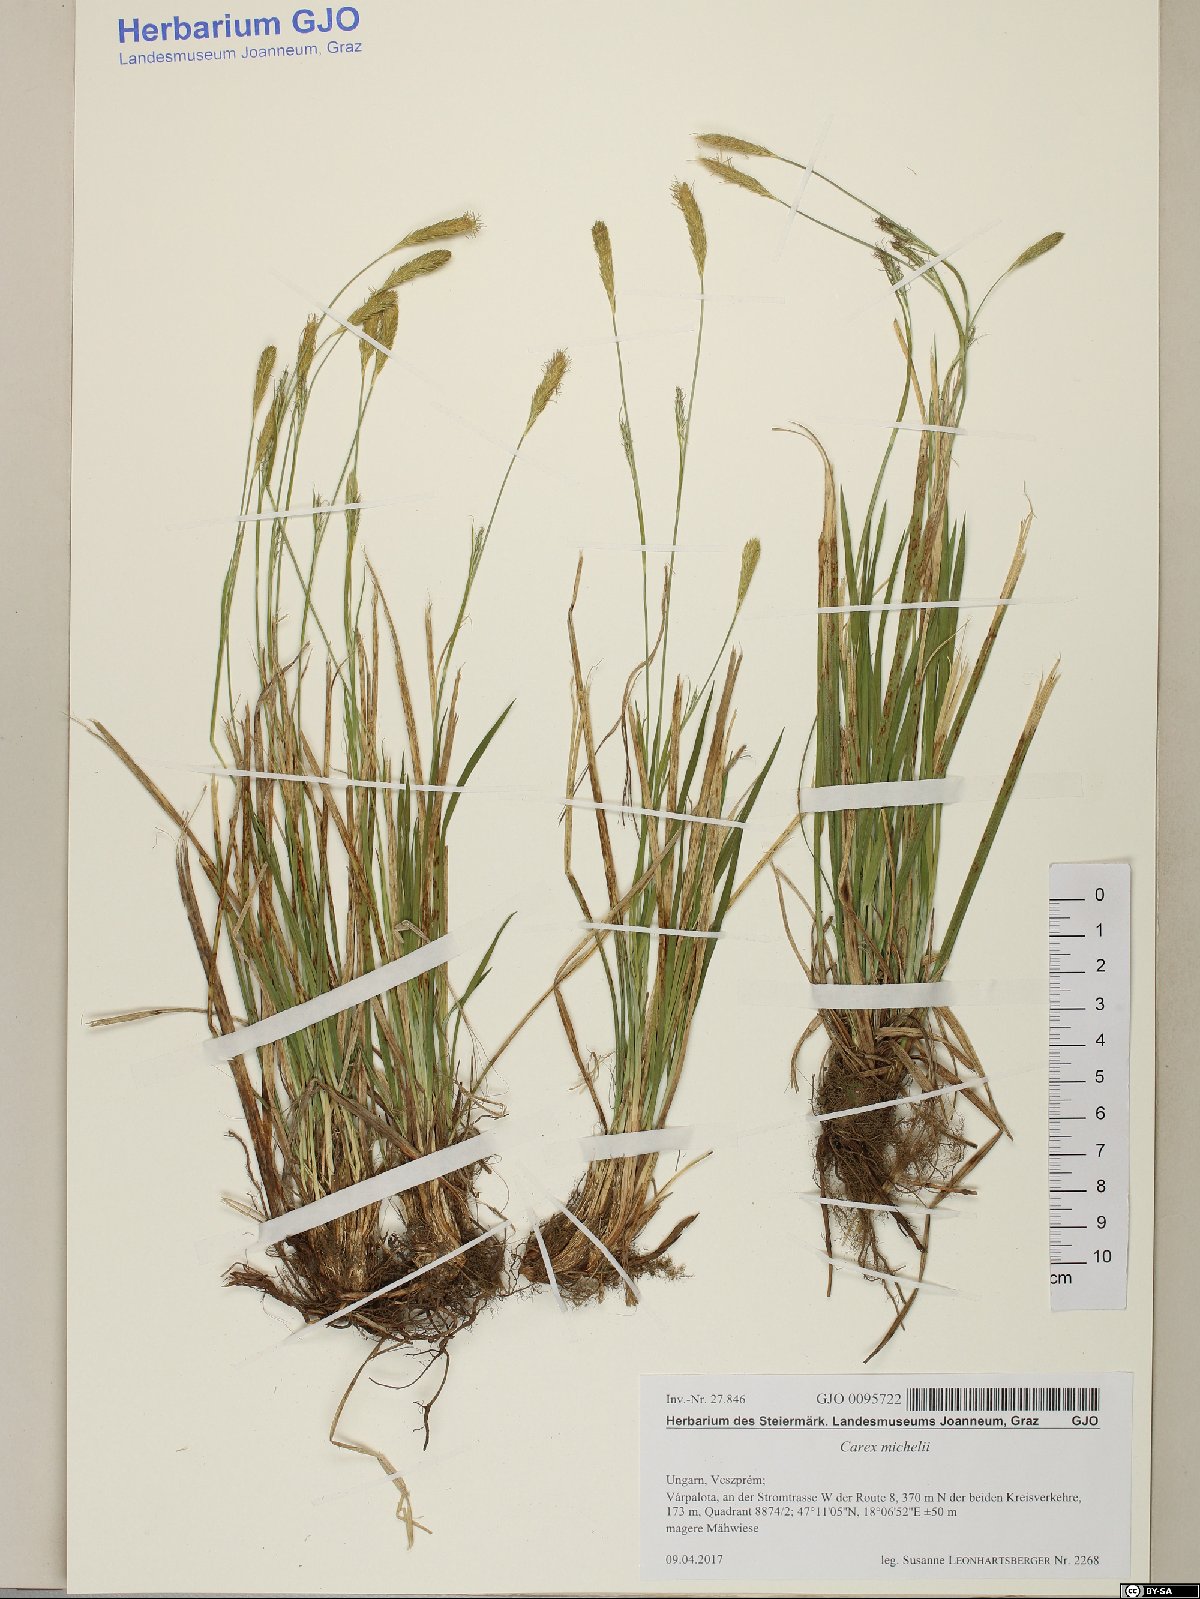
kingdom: Plantae
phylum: Tracheophyta
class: Liliopsida
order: Poales
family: Cyperaceae
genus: Carex
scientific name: Carex michelii
